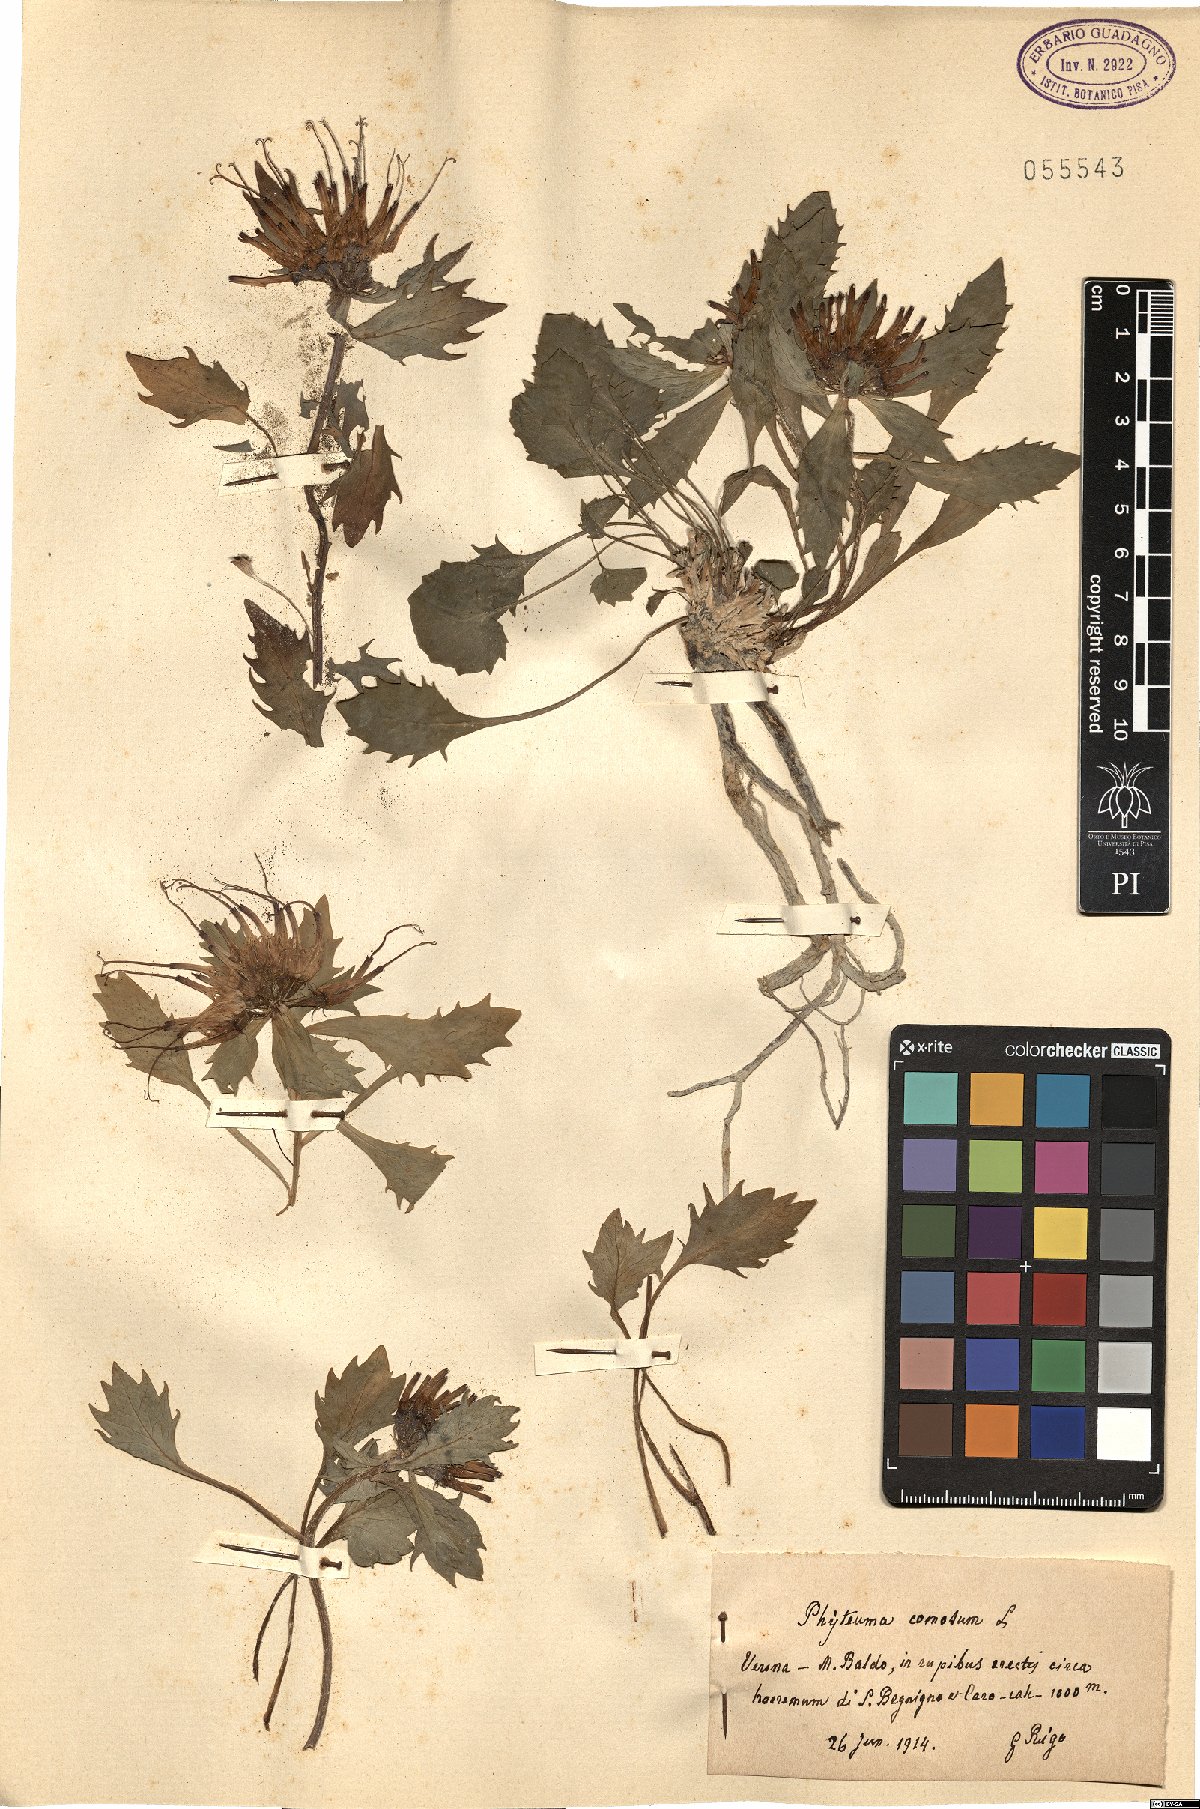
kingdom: Plantae
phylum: Tracheophyta
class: Magnoliopsida
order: Asterales
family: Campanulaceae
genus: Physoplexis
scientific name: Physoplexis comosa
